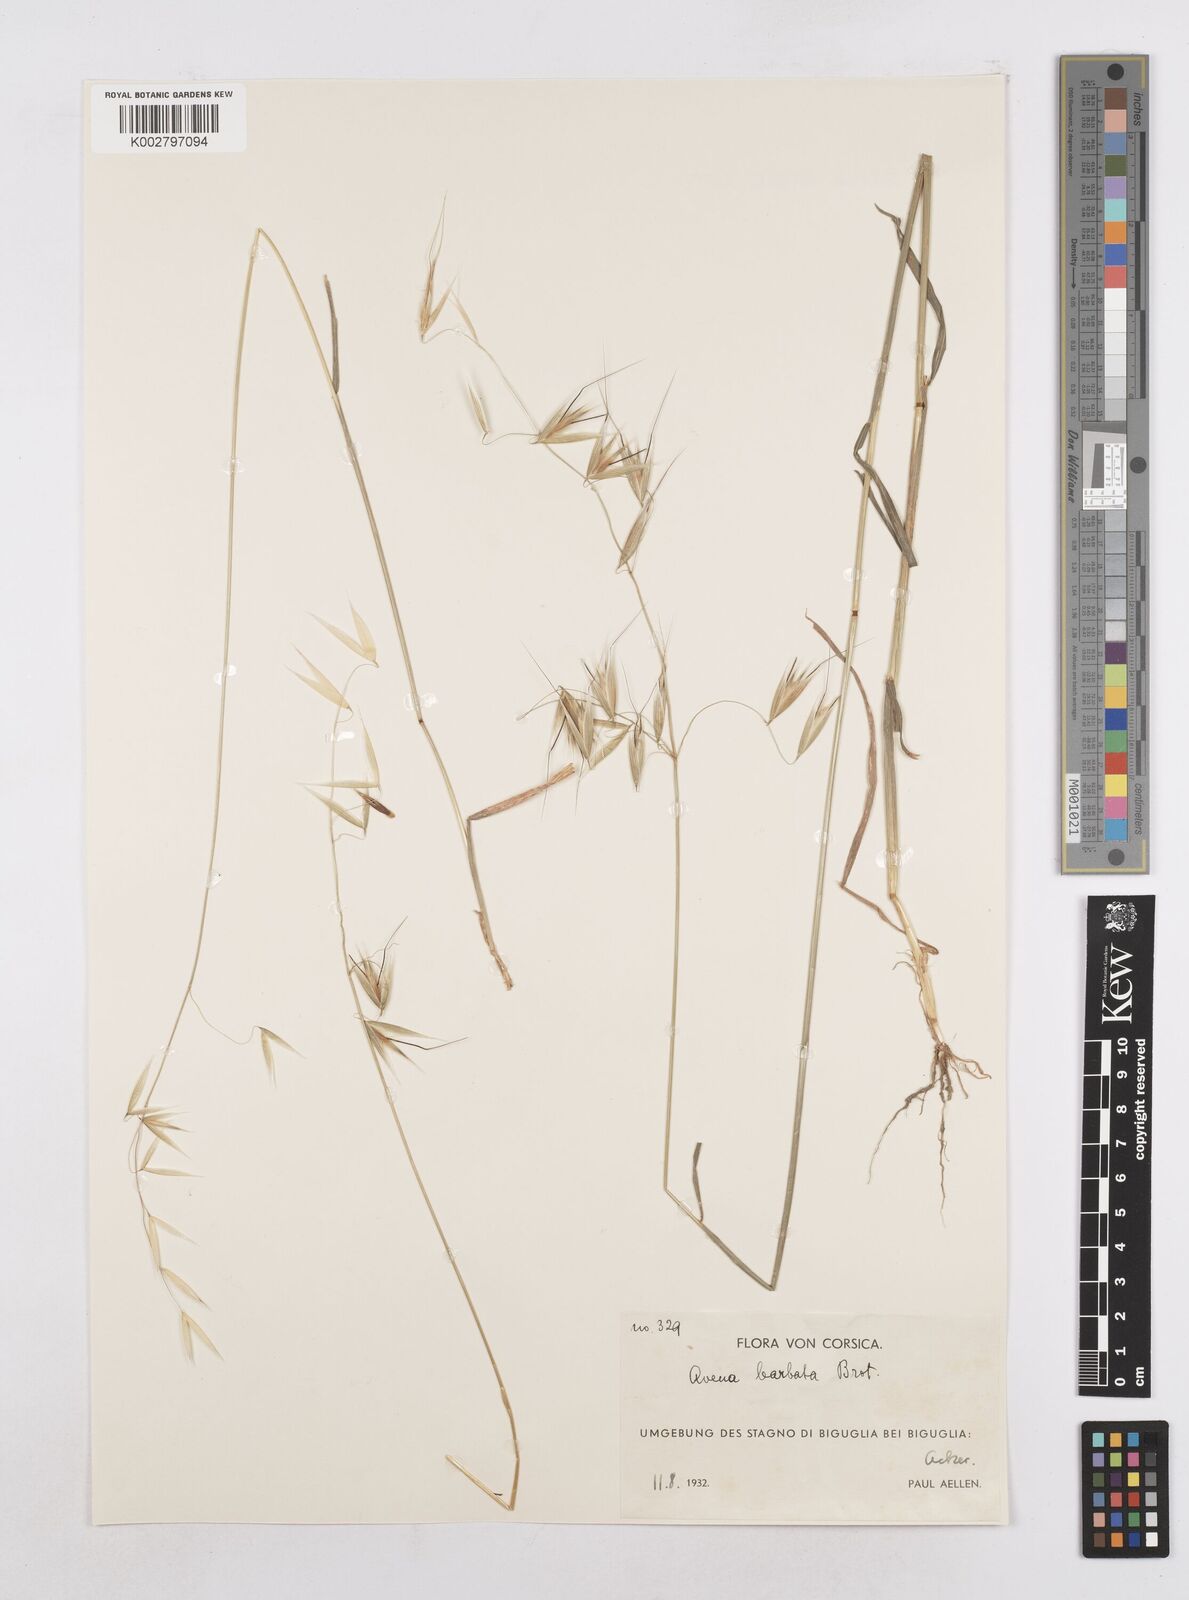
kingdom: Plantae
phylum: Tracheophyta
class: Liliopsida
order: Poales
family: Poaceae
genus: Avena
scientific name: Avena
